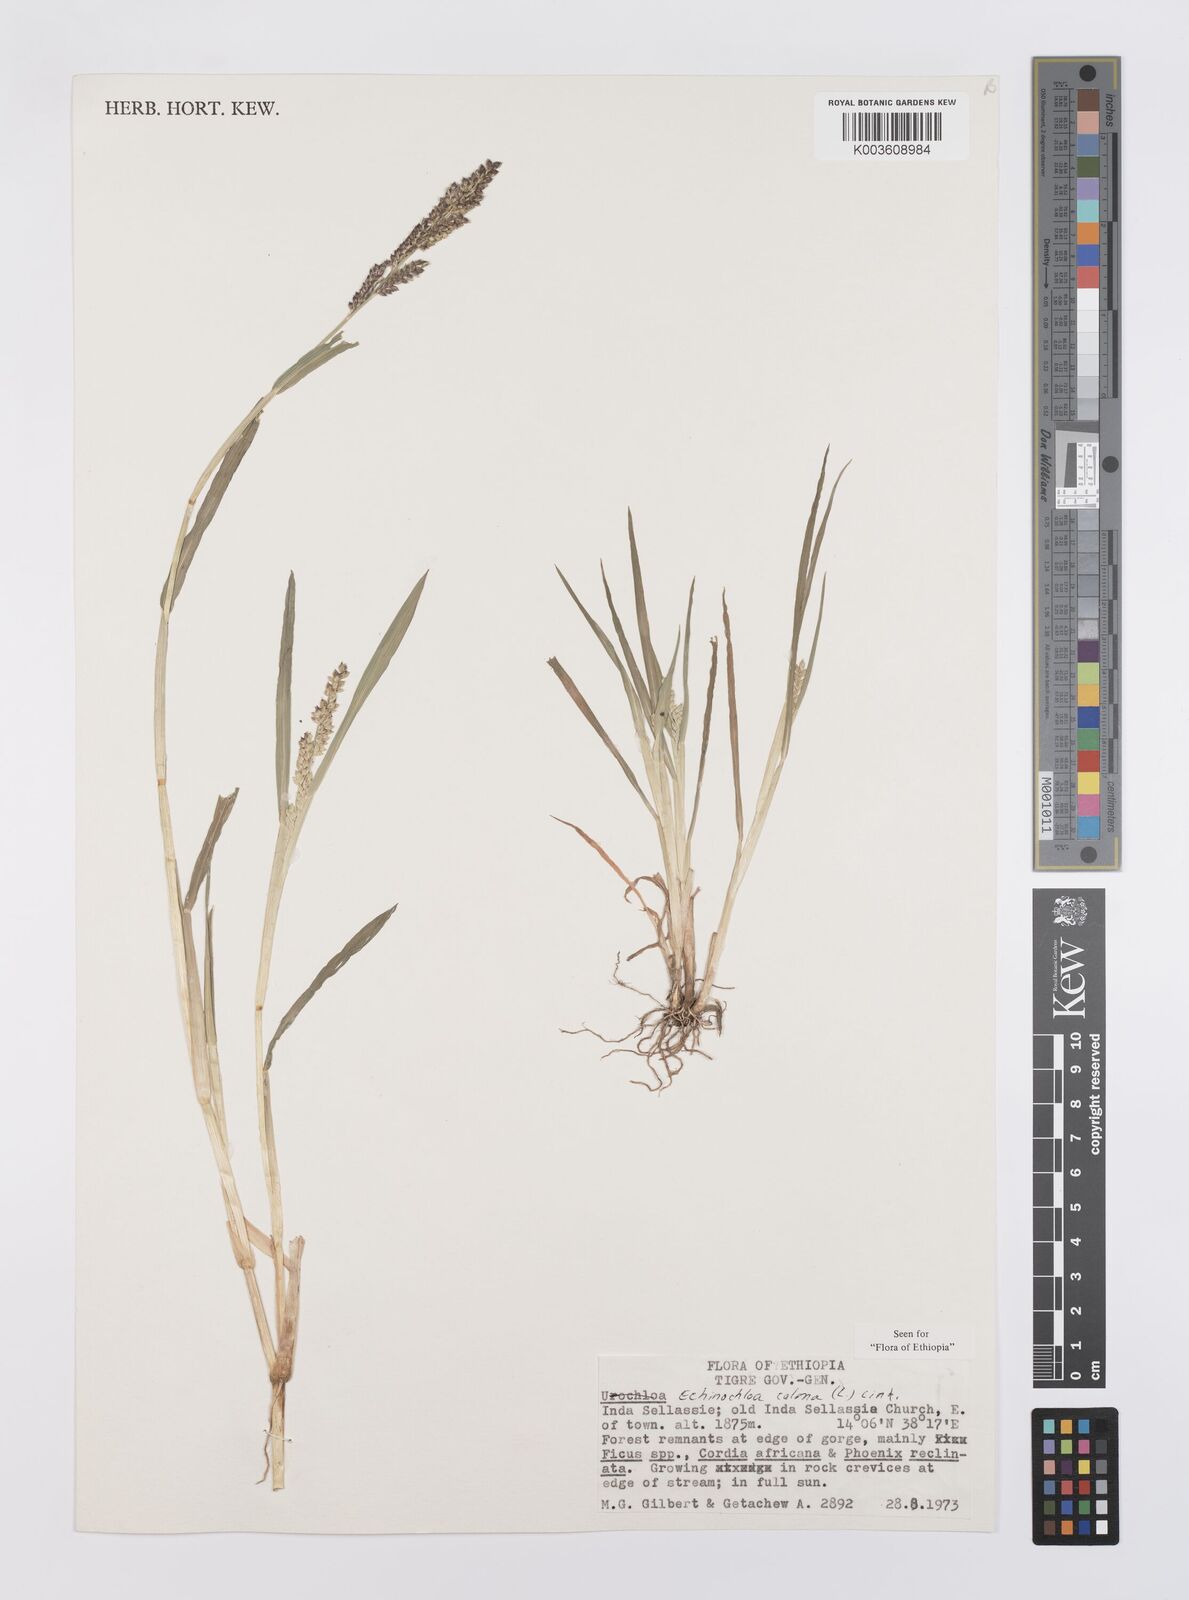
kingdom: Plantae
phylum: Tracheophyta
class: Liliopsida
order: Poales
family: Poaceae
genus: Echinochloa
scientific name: Echinochloa colonum
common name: Jungle rice
